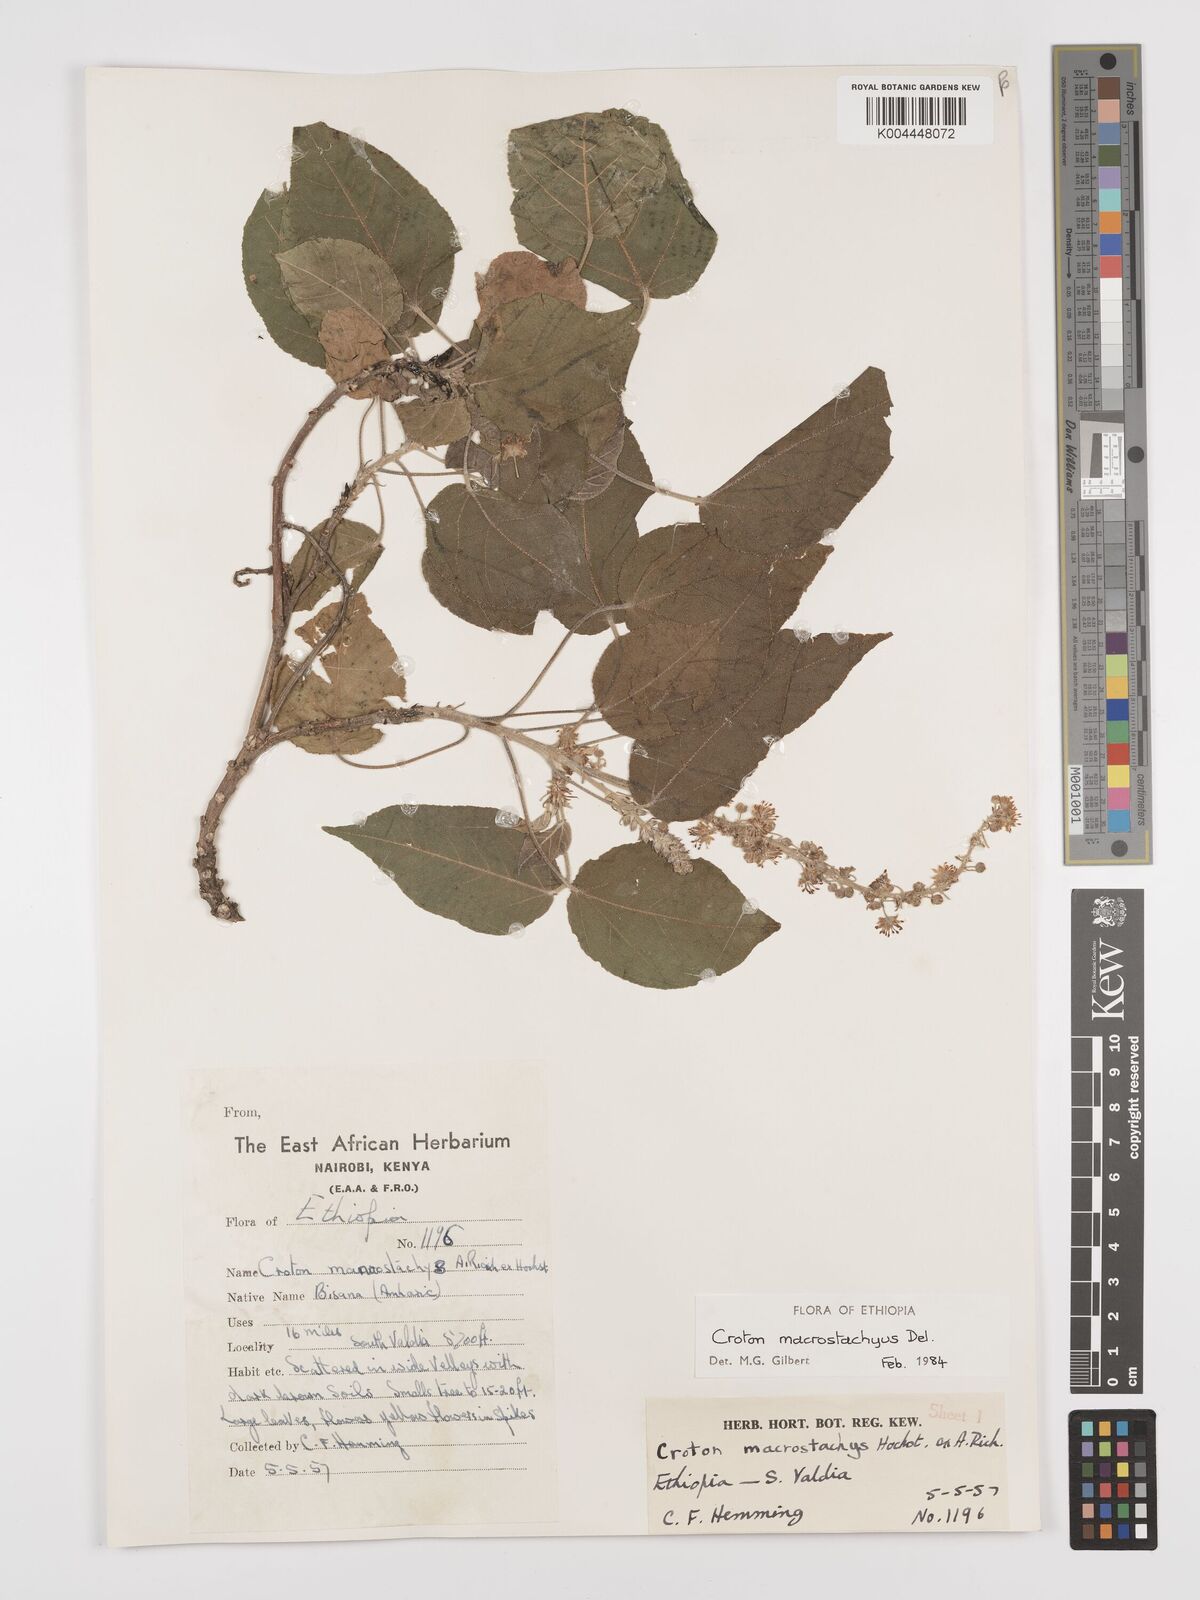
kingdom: Plantae
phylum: Tracheophyta
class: Magnoliopsida
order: Malpighiales
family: Euphorbiaceae
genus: Croton
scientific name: Croton macrostachyus
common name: Mutundu
